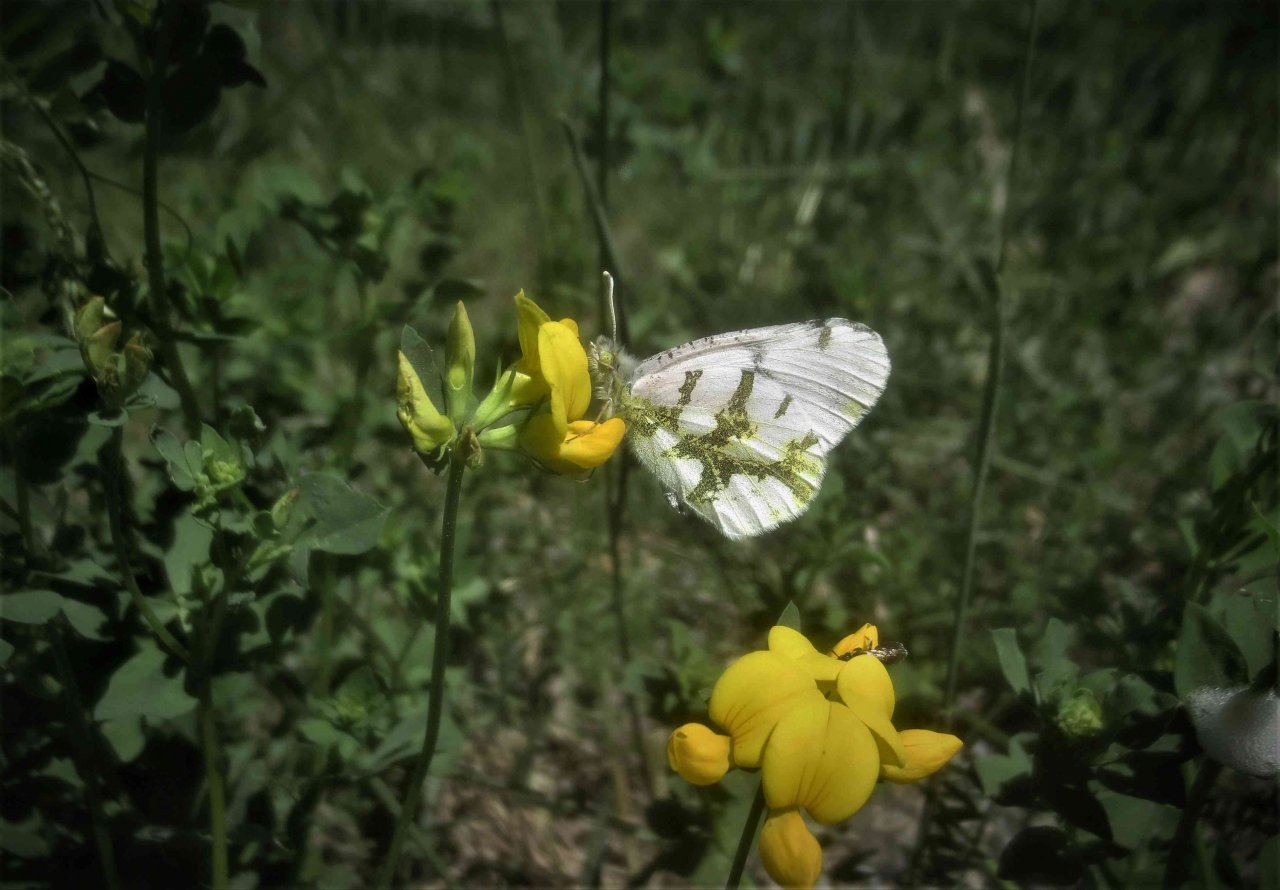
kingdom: Animalia
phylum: Arthropoda
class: Insecta
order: Lepidoptera
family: Pieridae
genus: Euchloe
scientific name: Euchloe olympia
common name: Olympia Marble
